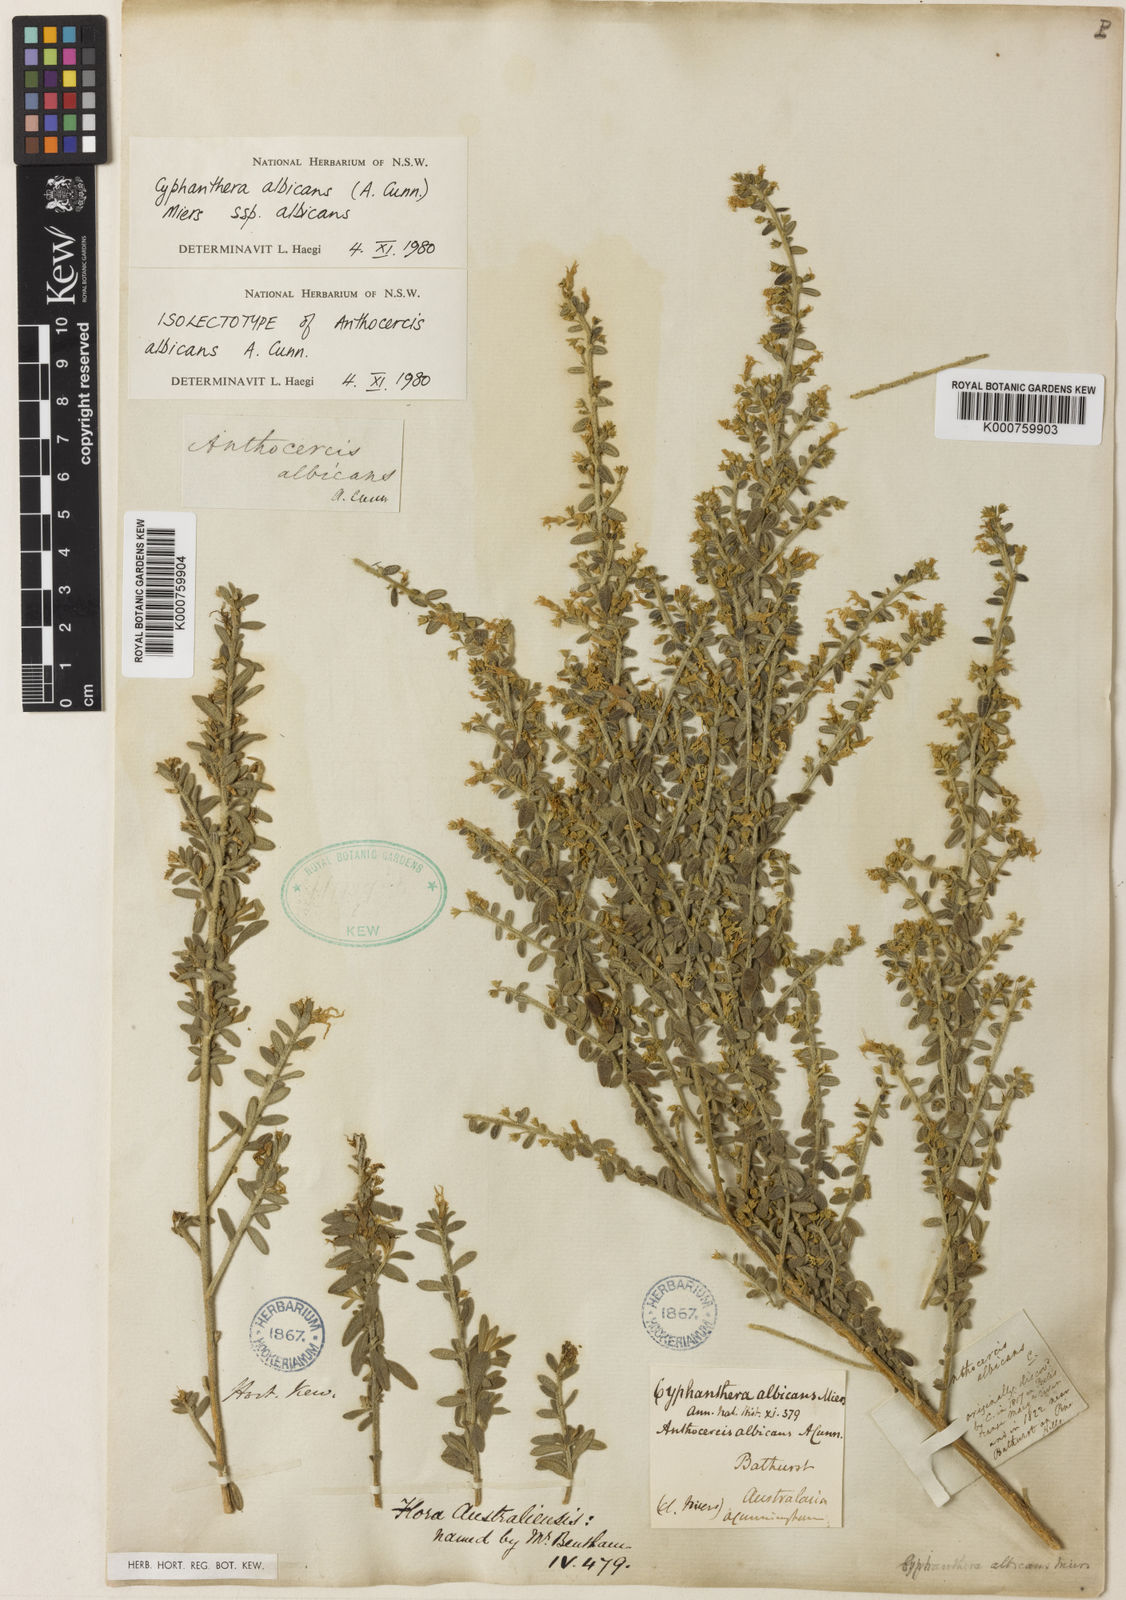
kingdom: Plantae
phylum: Tracheophyta
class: Magnoliopsida
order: Solanales
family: Solanaceae
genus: Cyphanthera
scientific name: Cyphanthera albicans
